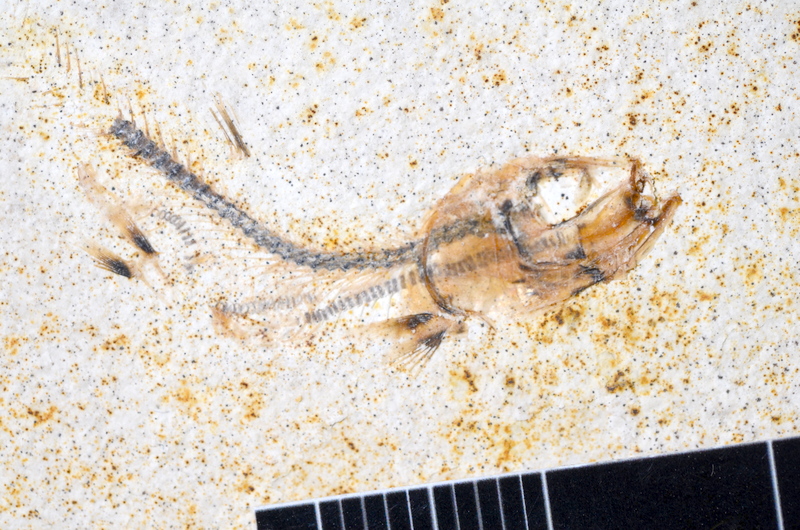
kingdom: Animalia
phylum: Chordata
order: Salmoniformes
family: Orthogonikleithridae
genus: Orthogonikleithrus
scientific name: Orthogonikleithrus hoelli
